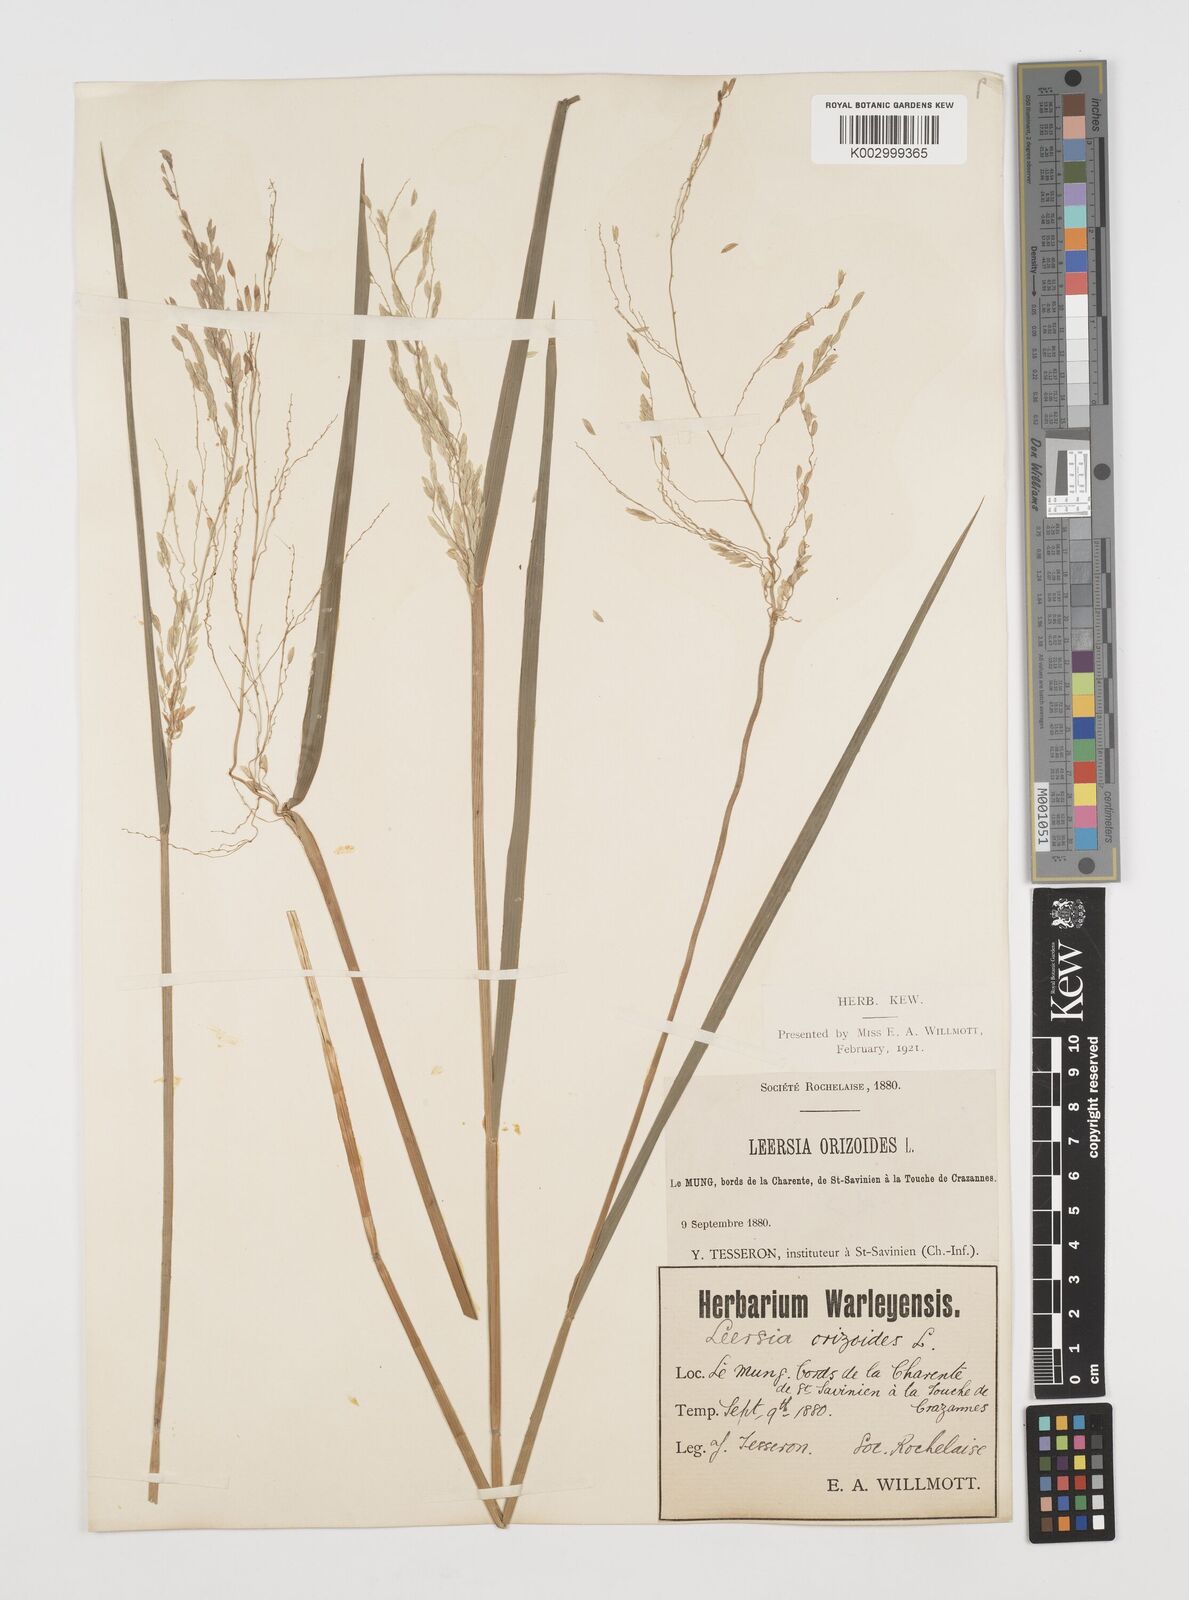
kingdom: Plantae
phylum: Tracheophyta
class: Liliopsida
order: Poales
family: Poaceae
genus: Leersia
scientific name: Leersia oryzoides
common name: Cut-grass
